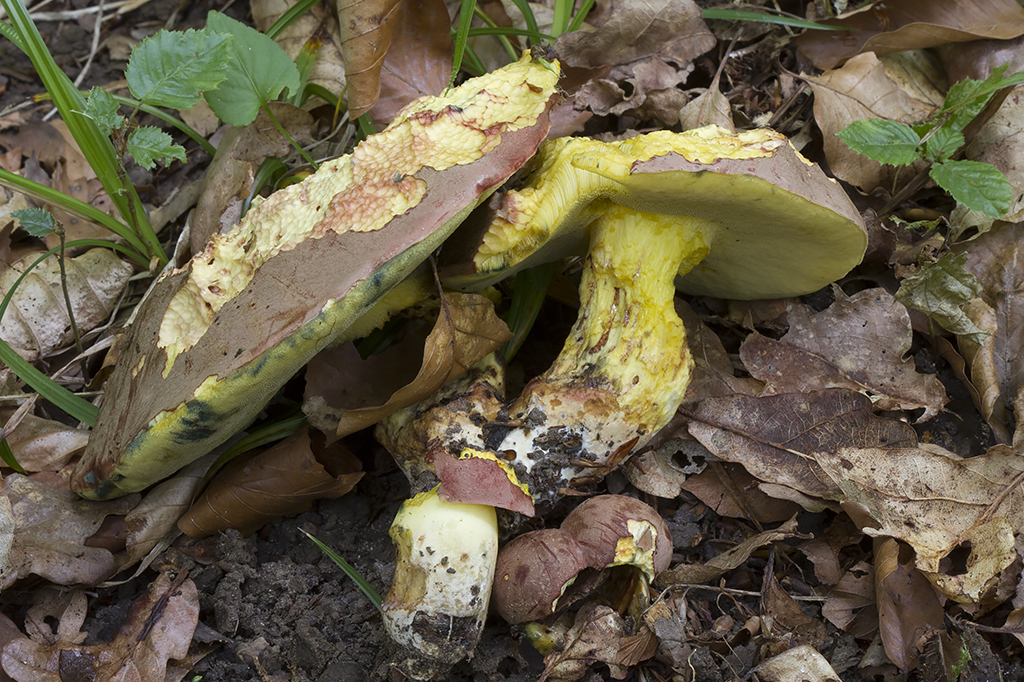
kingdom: Fungi
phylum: Basidiomycota
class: Agaricomycetes
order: Boletales
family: Boletaceae
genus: Butyriboletus
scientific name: Butyriboletus fuscoroseus
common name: brunrosa rørhat
